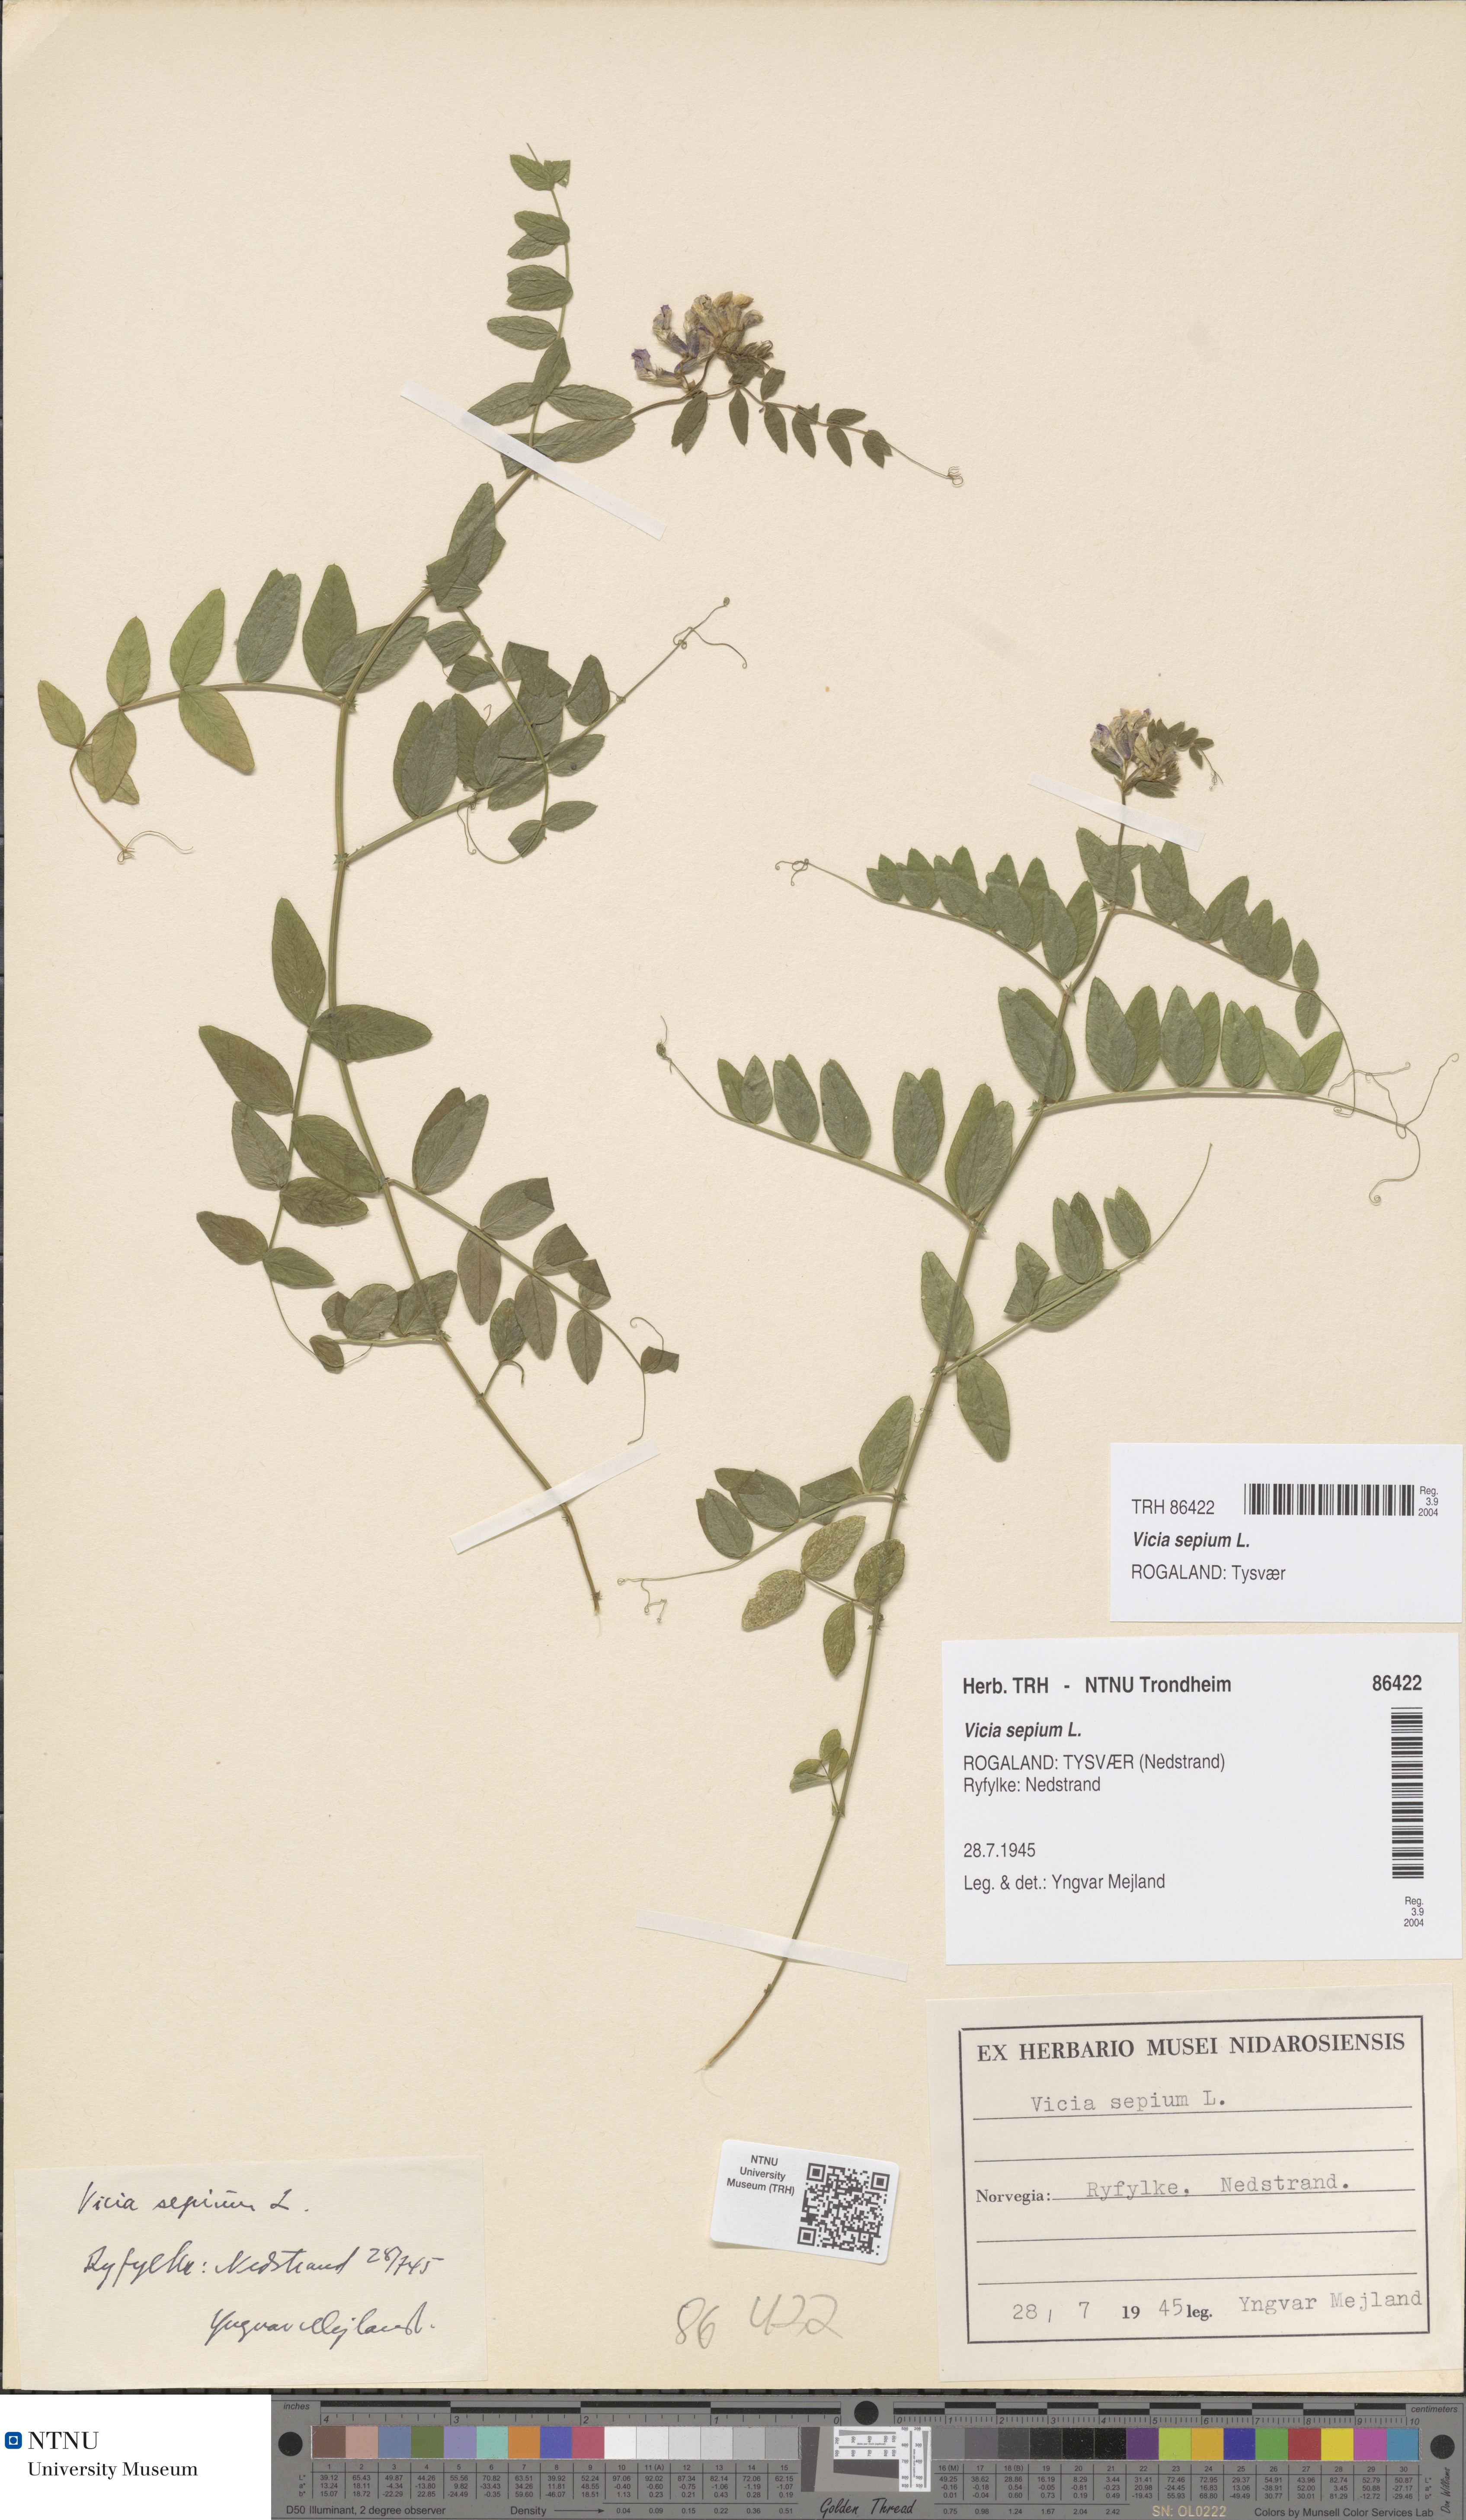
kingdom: Plantae
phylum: Tracheophyta
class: Magnoliopsida
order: Fabales
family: Fabaceae
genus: Vicia
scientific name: Vicia sepium
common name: Bush vetch
